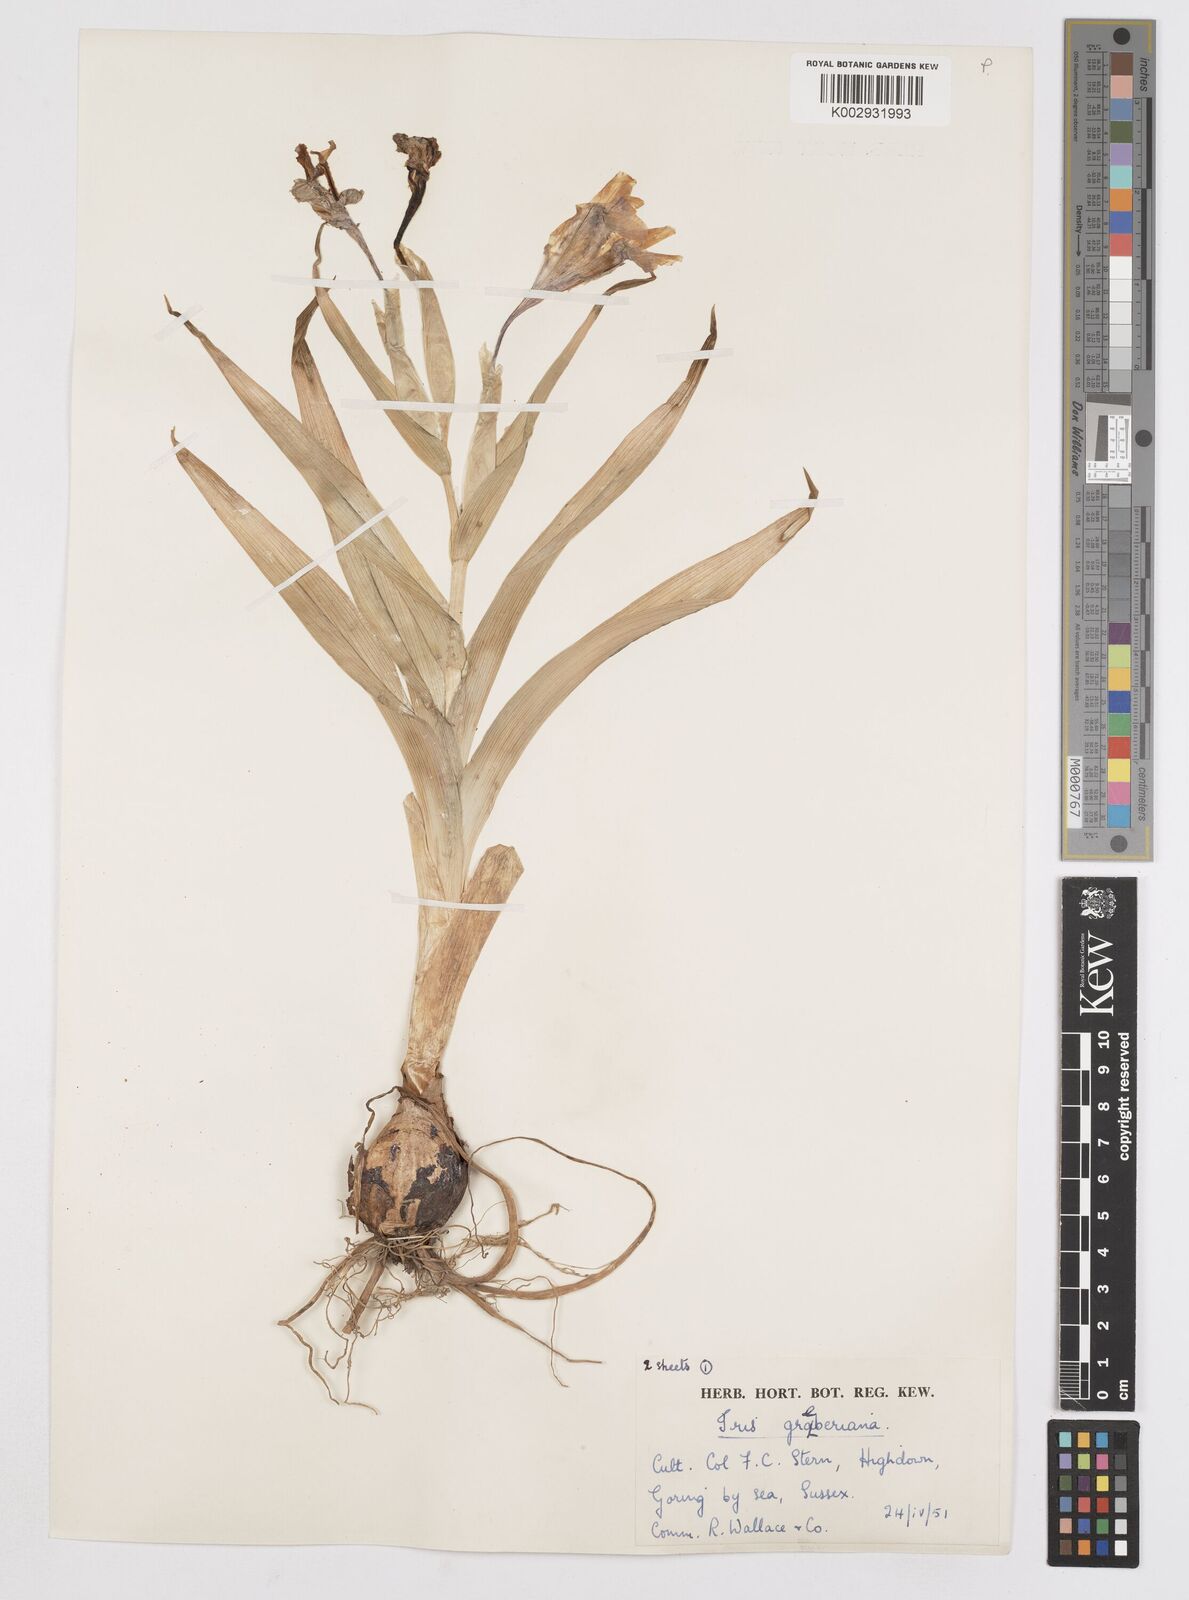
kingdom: Plantae
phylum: Tracheophyta
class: Liliopsida
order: Asparagales
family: Iridaceae
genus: Iris
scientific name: Iris graeberiana
